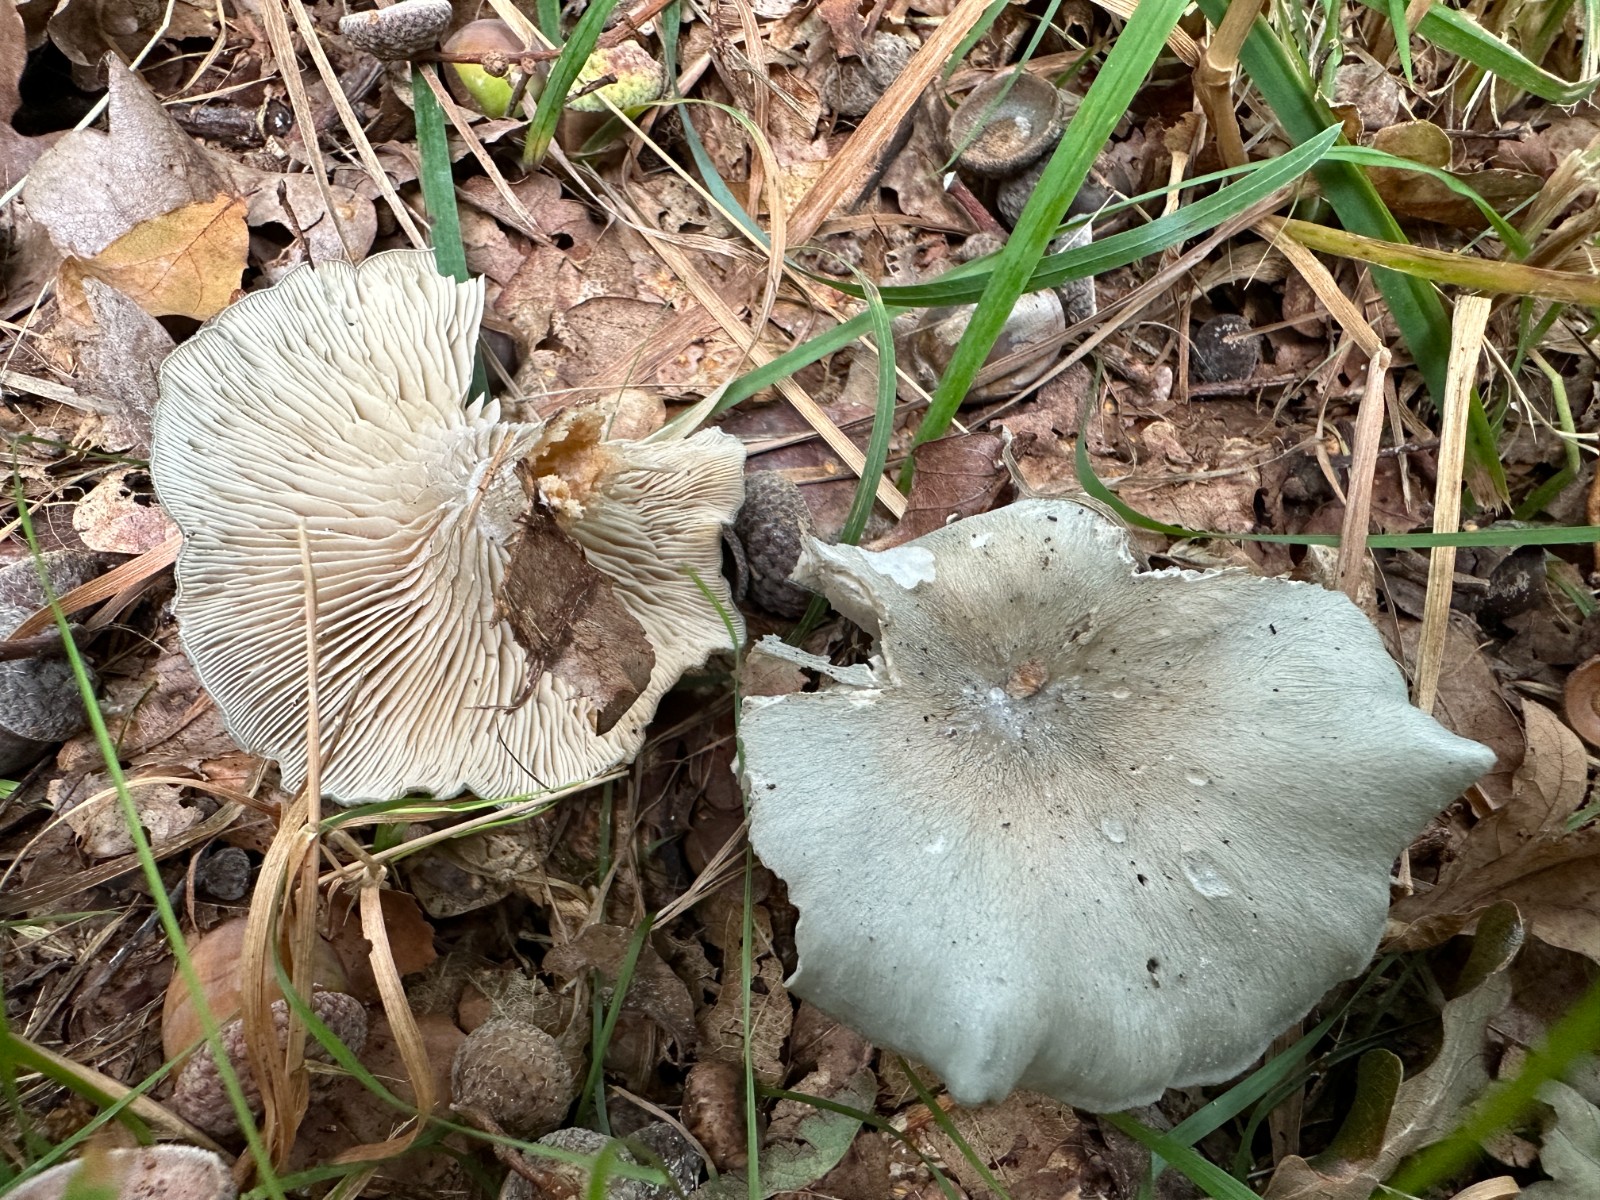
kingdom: Fungi
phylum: Basidiomycota
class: Agaricomycetes
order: Agaricales
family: Tricholomataceae
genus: Clitocybe
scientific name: Clitocybe odora
